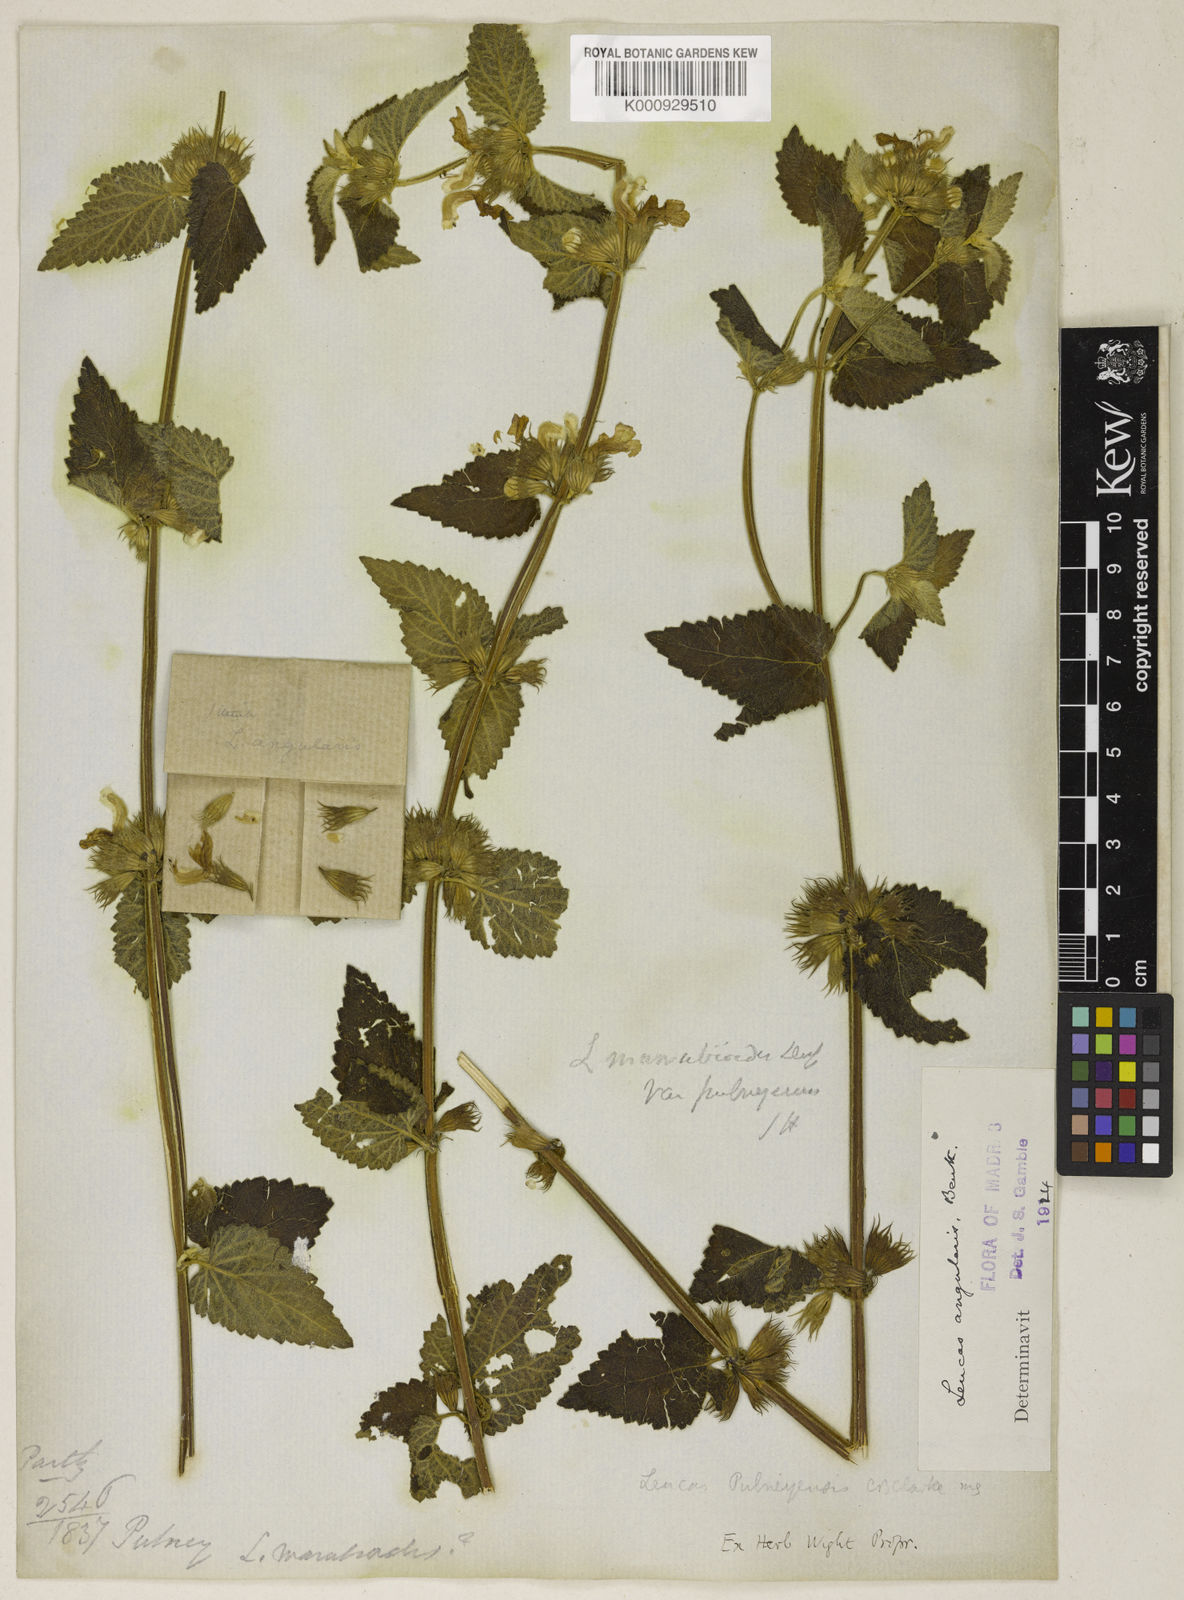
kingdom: Plantae
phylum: Tracheophyta
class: Magnoliopsida
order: Lamiales
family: Lamiaceae
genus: Leucas
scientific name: Leucas marrubioides
